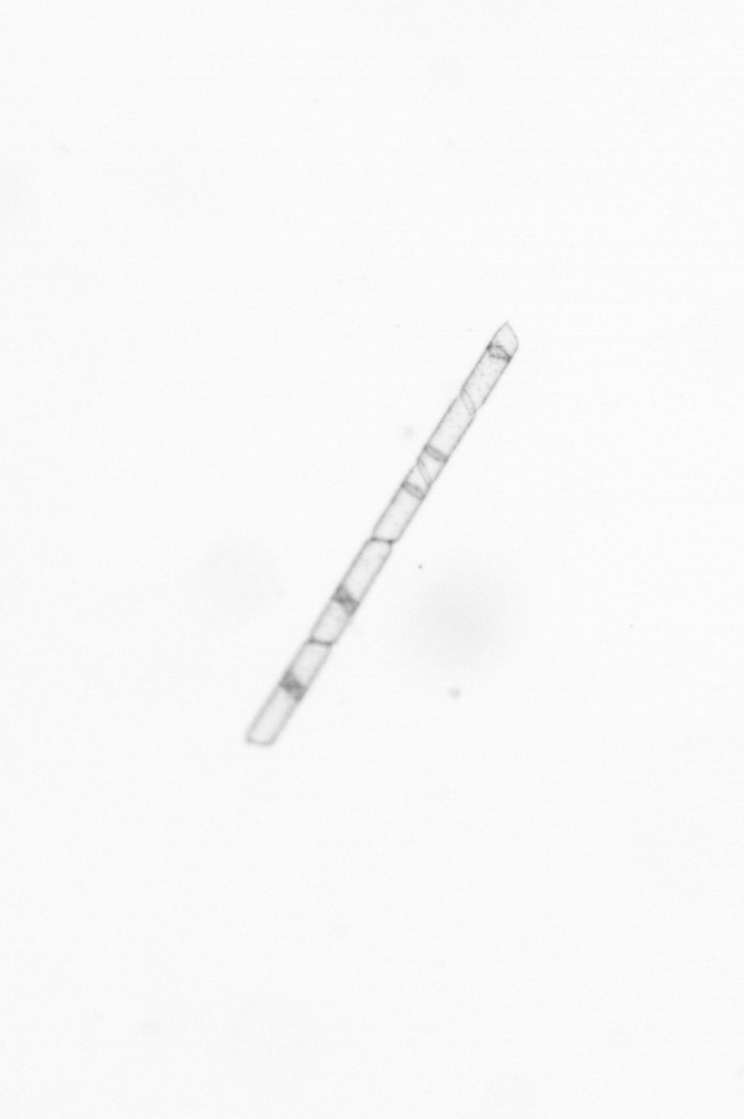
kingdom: Chromista
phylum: Ochrophyta
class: Bacillariophyceae
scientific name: Bacillariophyceae
